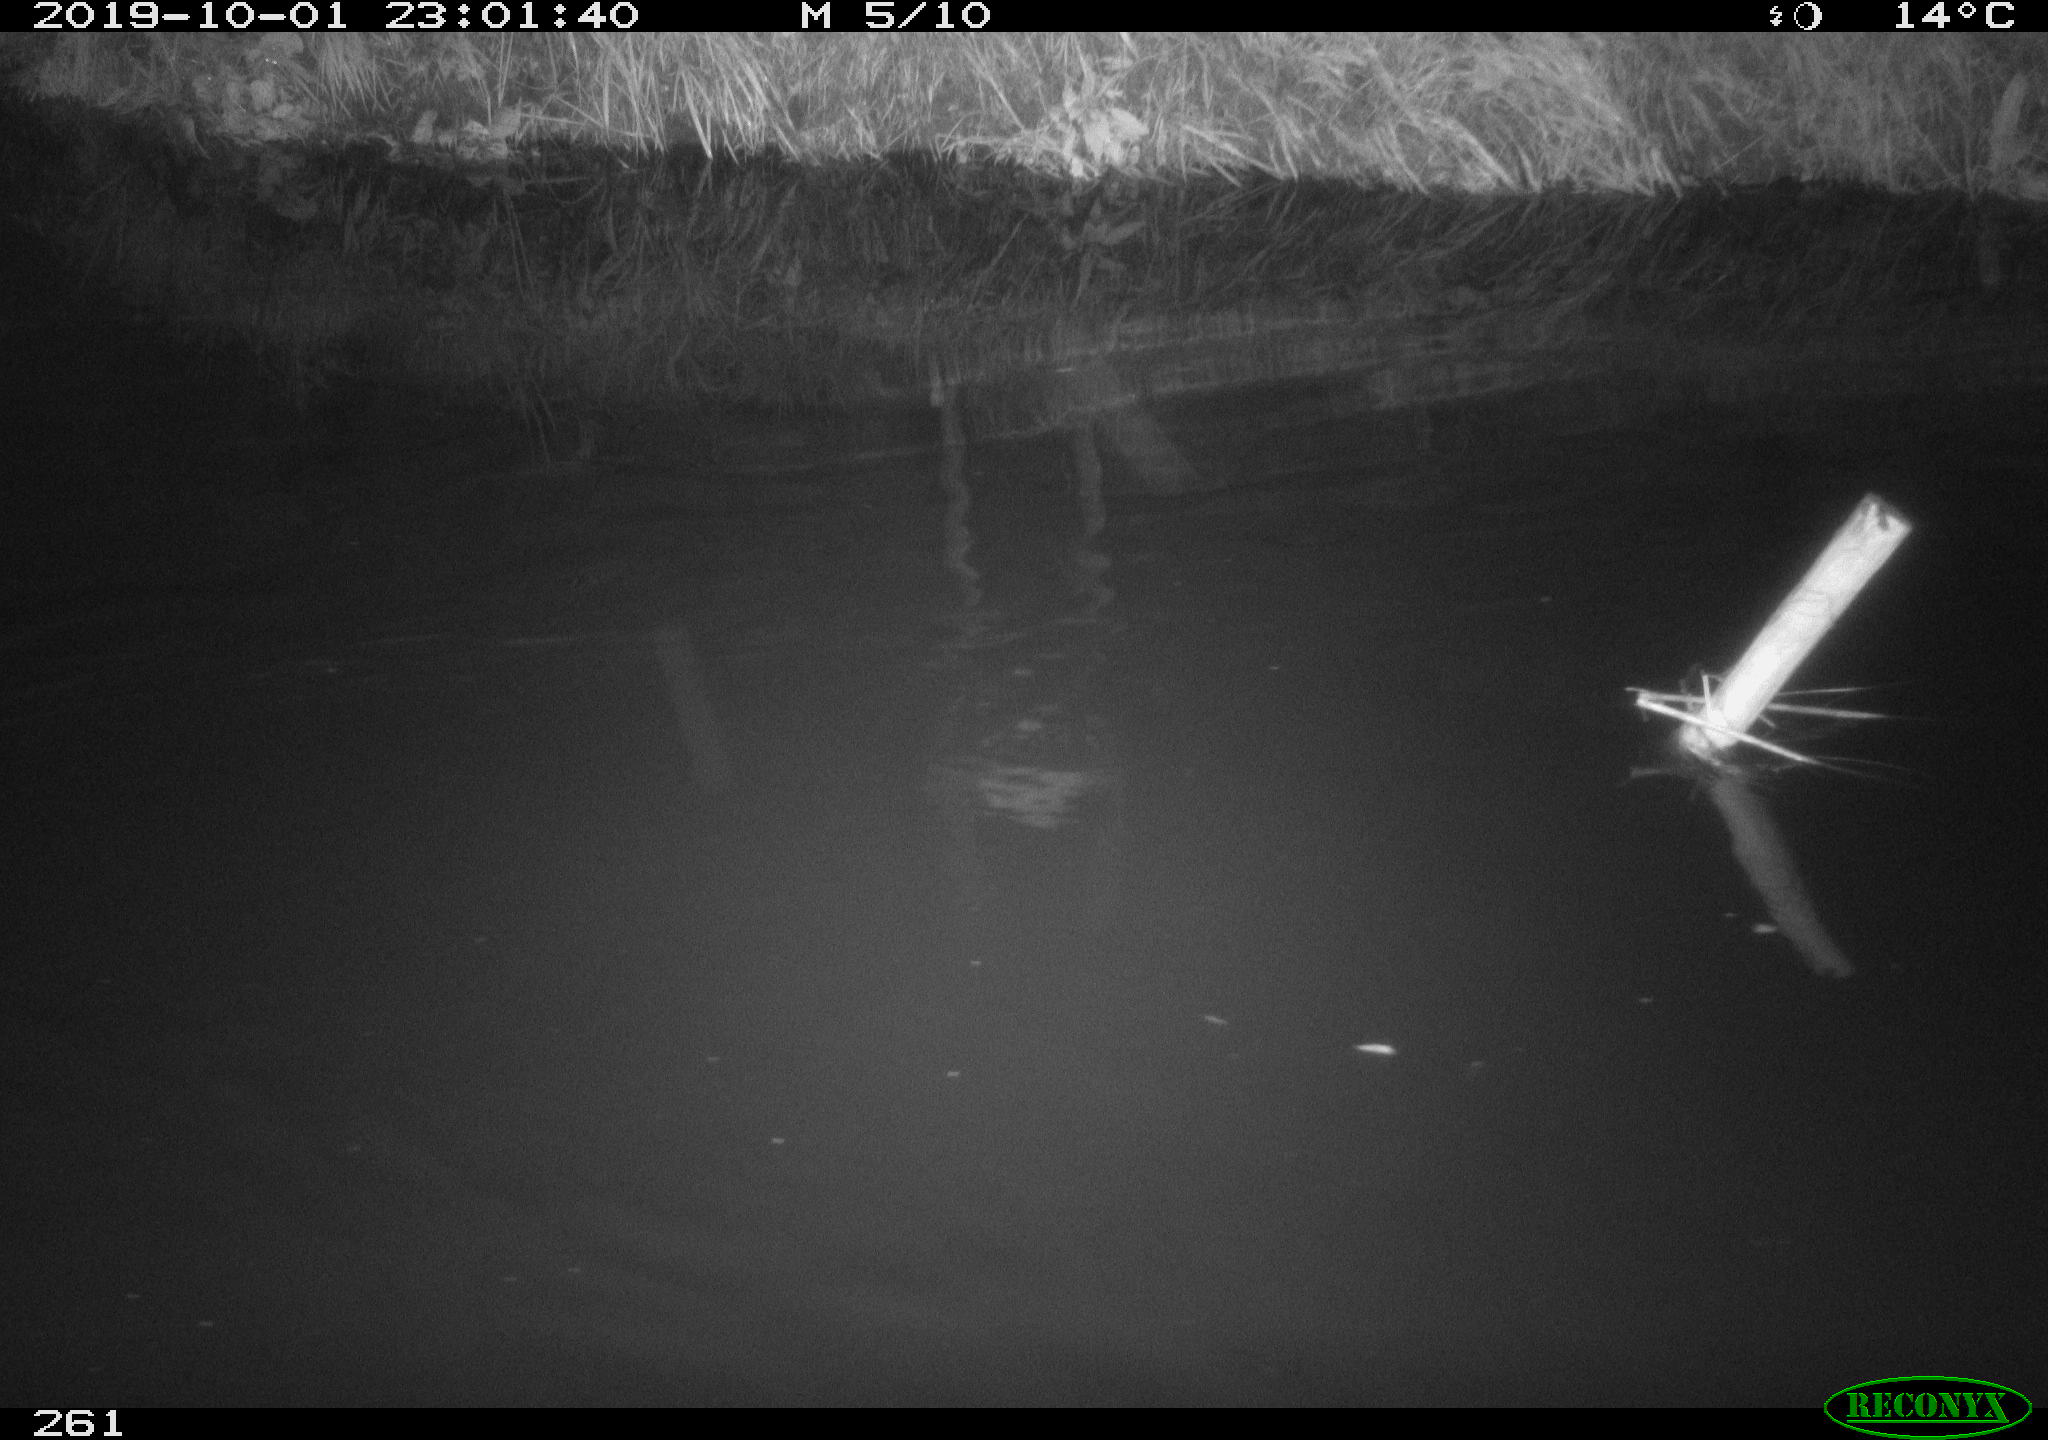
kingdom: Animalia
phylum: Chordata
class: Aves
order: Anseriformes
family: Anatidae
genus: Anas
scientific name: Anas platyrhynchos
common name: Mallard
